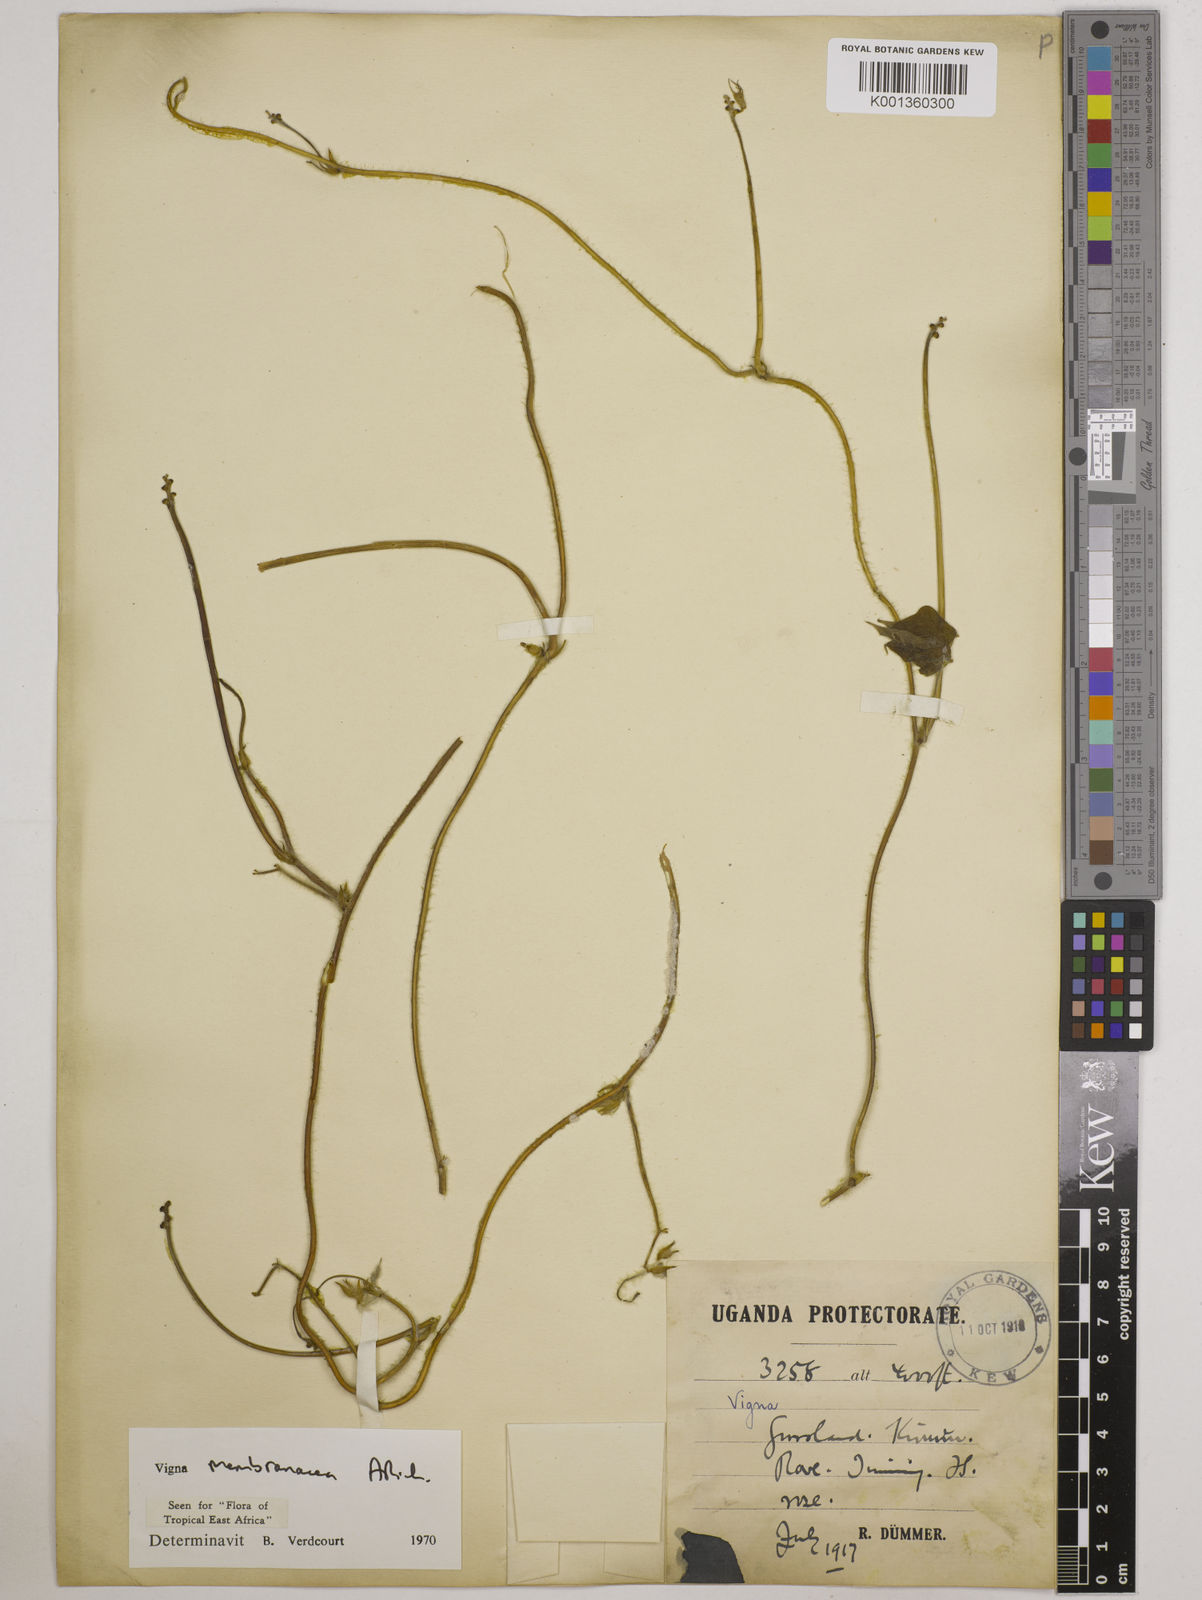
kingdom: Plantae
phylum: Tracheophyta
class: Magnoliopsida
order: Fabales
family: Fabaceae
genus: Vigna
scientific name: Vigna membranacea
